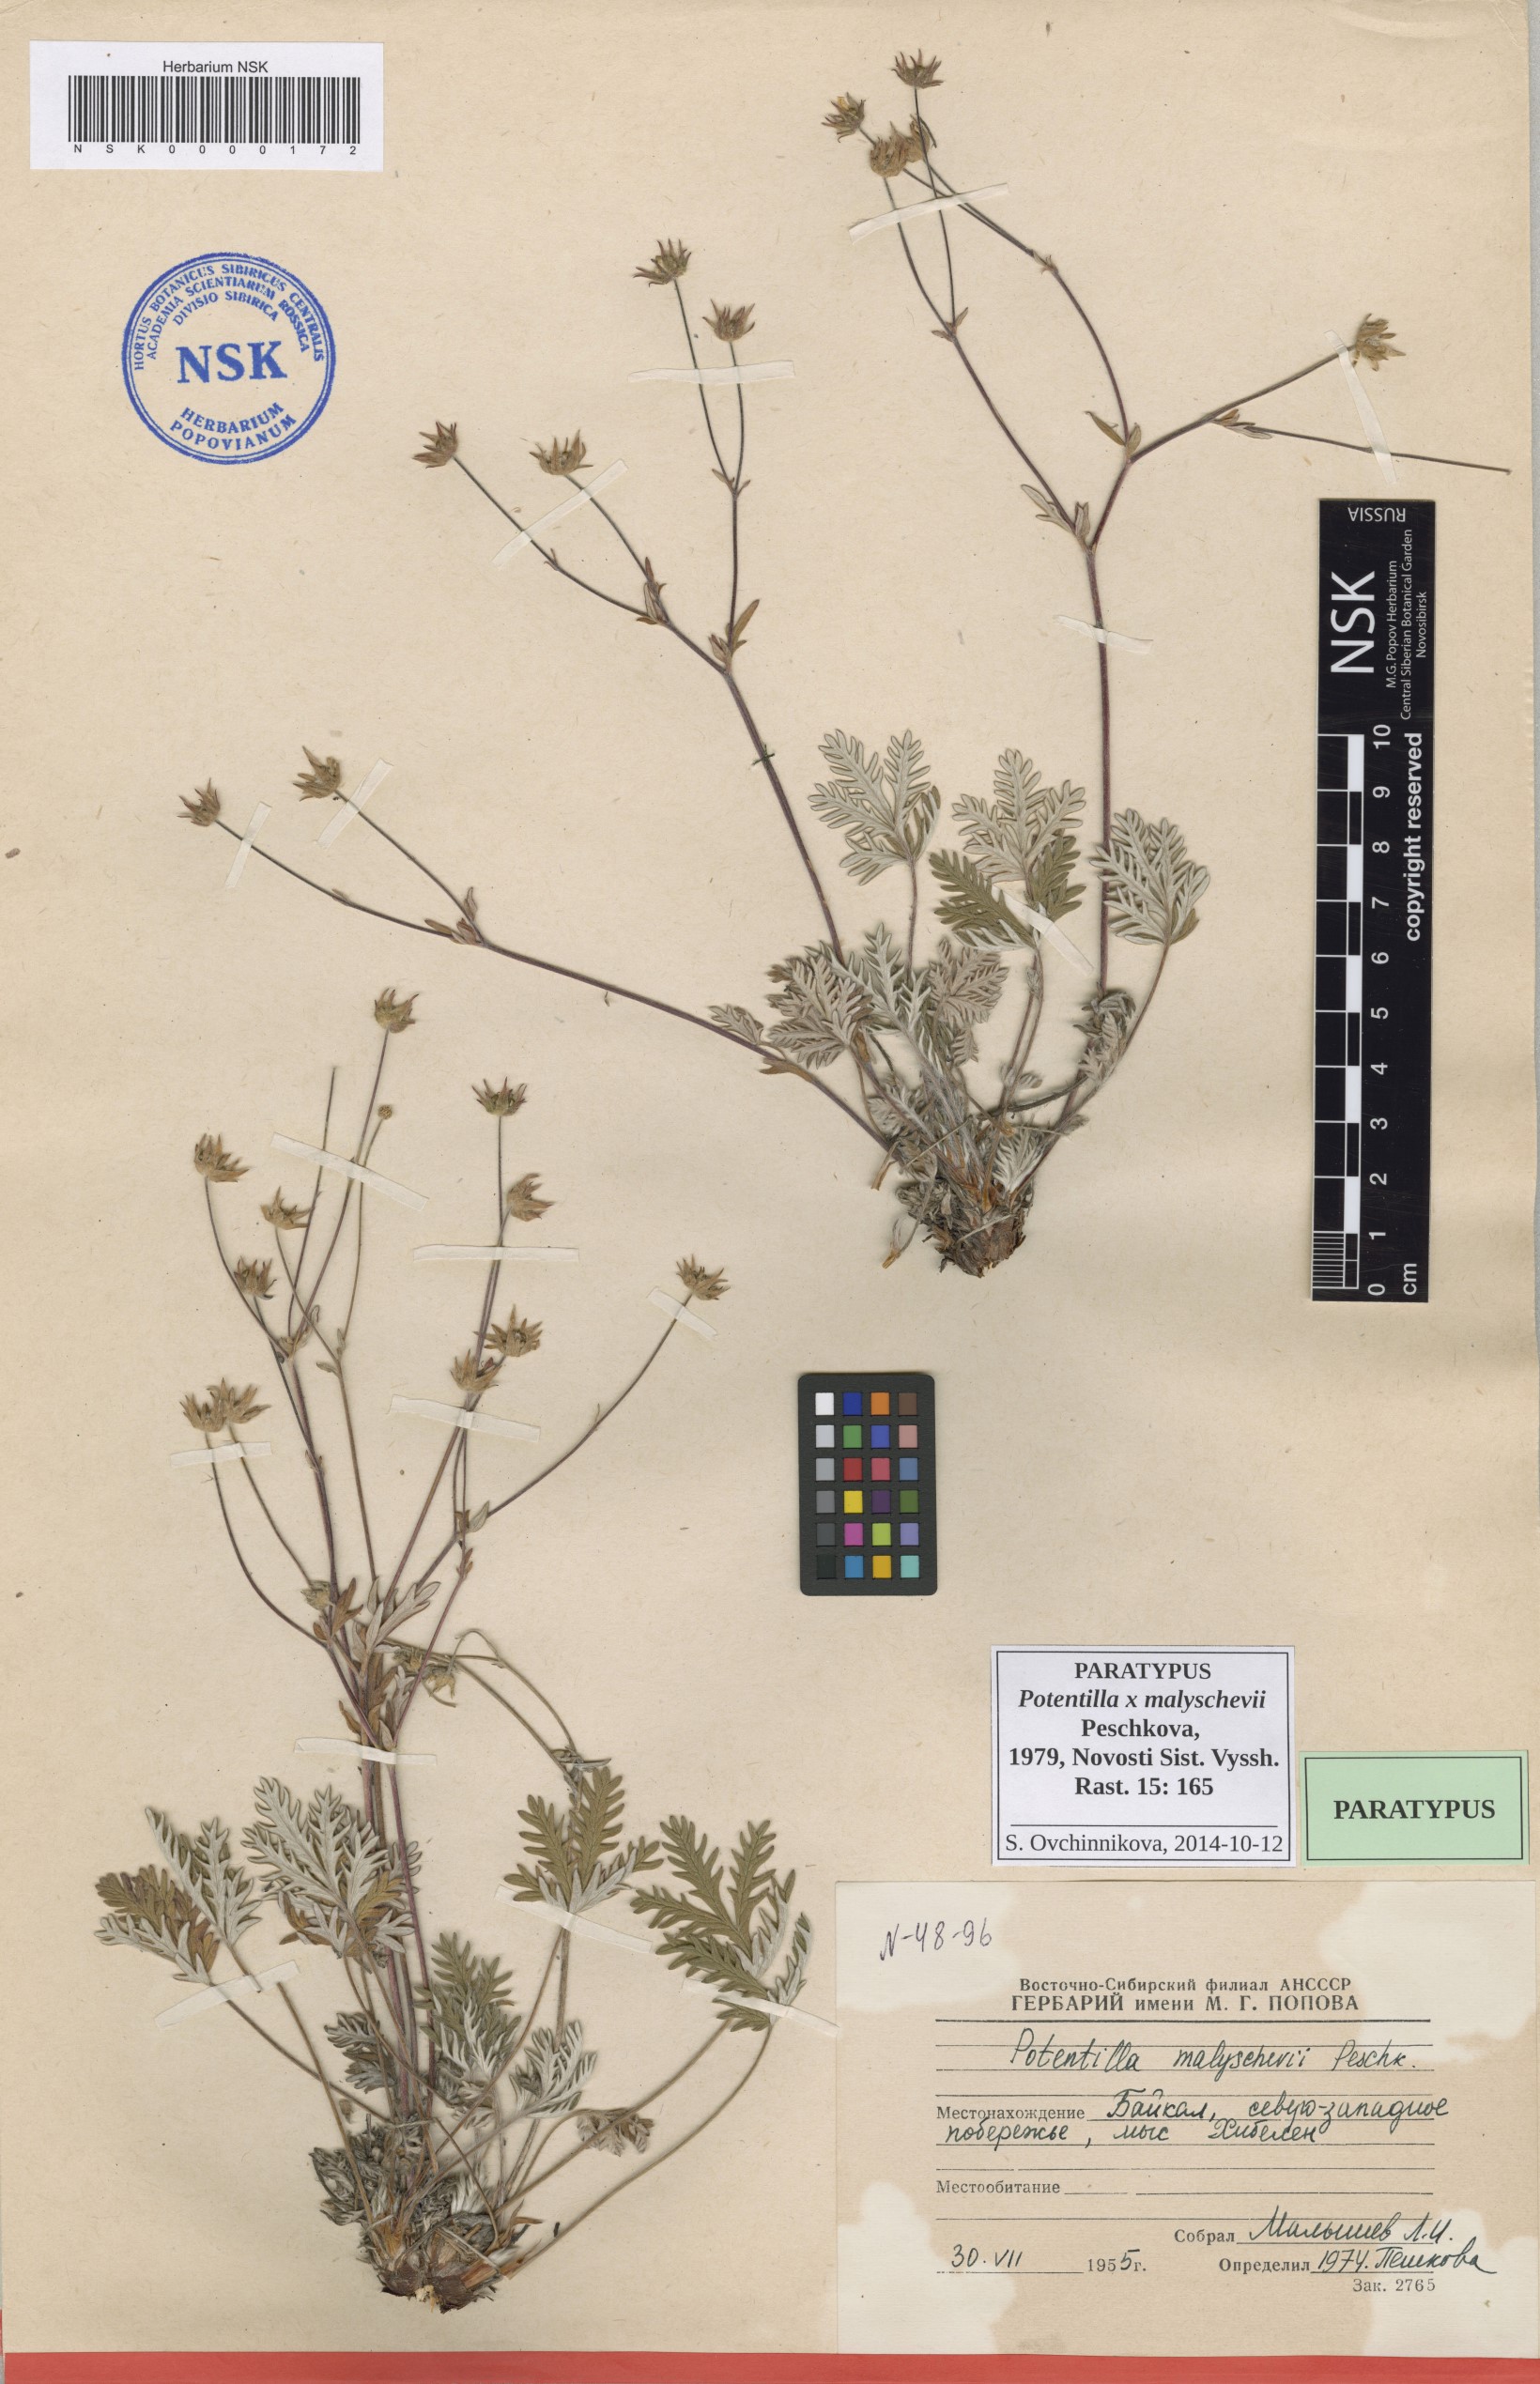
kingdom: Plantae
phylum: Tracheophyta
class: Magnoliopsida
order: Rosales
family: Rosaceae
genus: Potentilla
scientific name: Potentilla chionea
